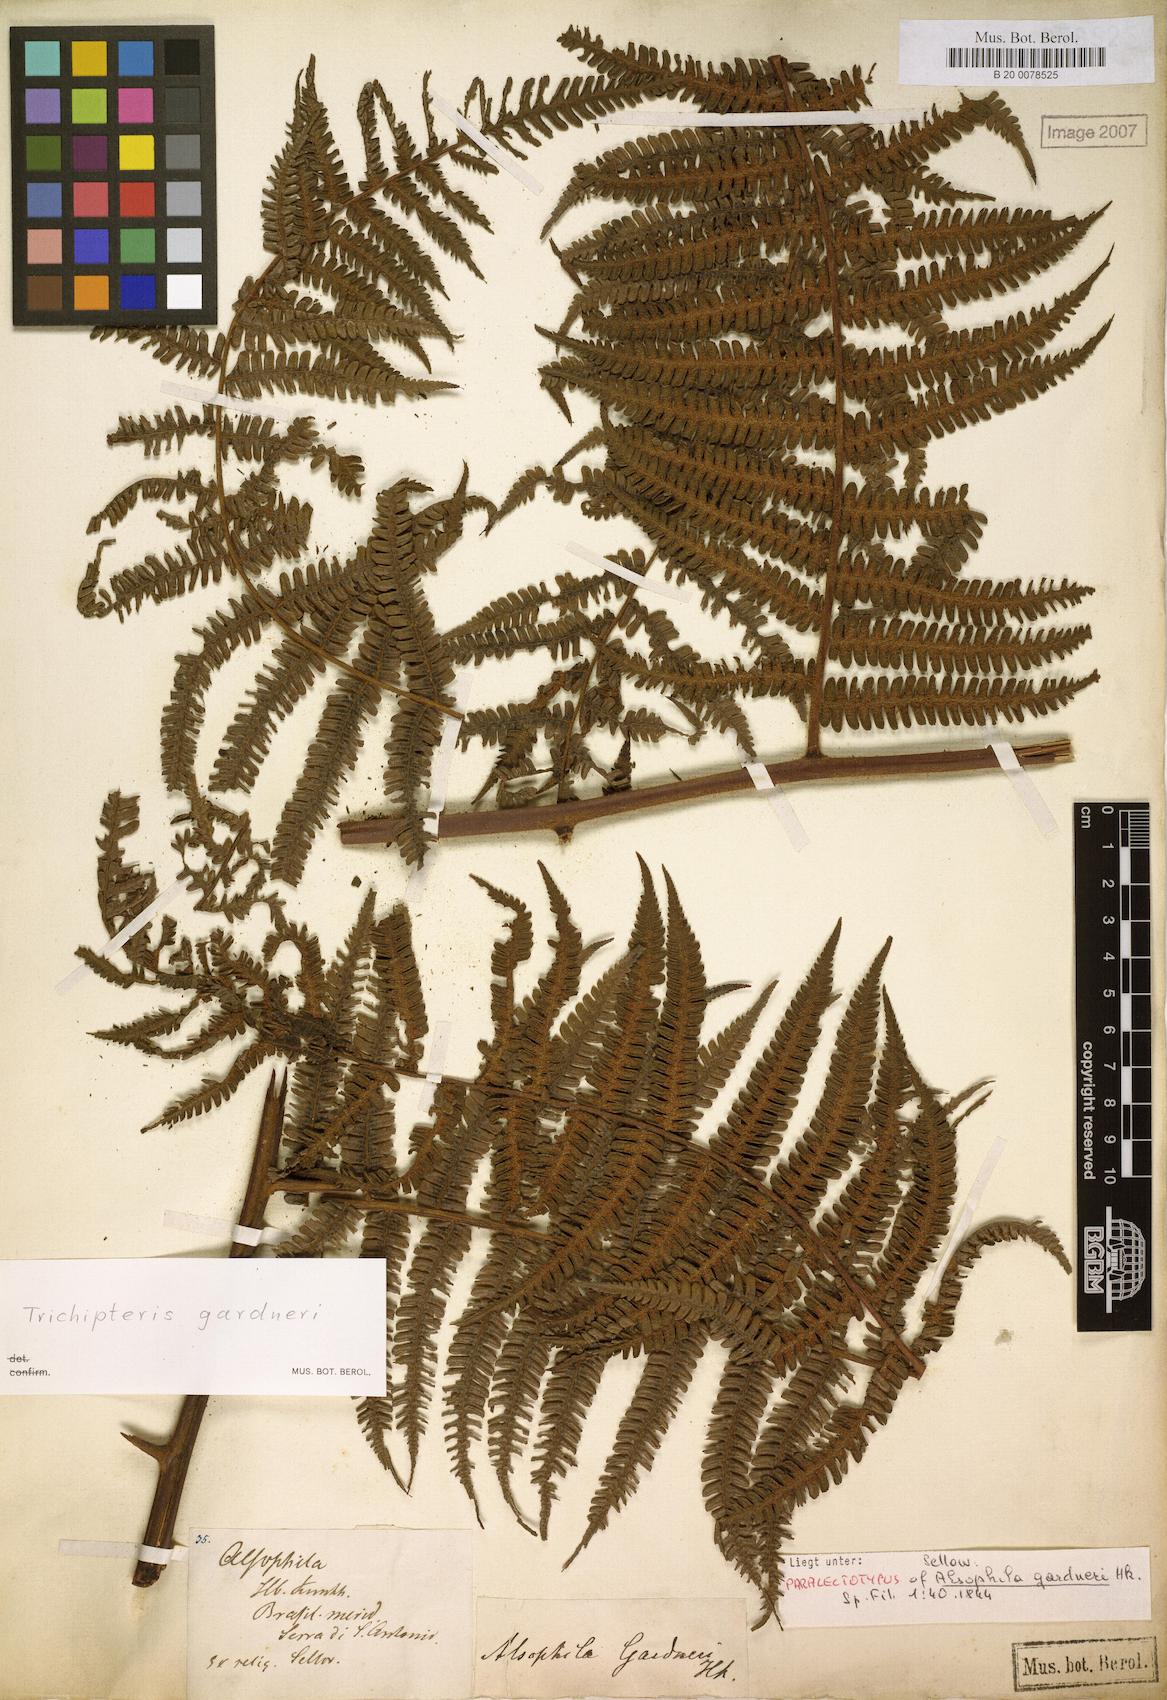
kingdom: Plantae
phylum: Tracheophyta
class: Polypodiopsida
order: Cyatheales
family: Cyatheaceae
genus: Cyathea
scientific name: Cyathea mexiae
